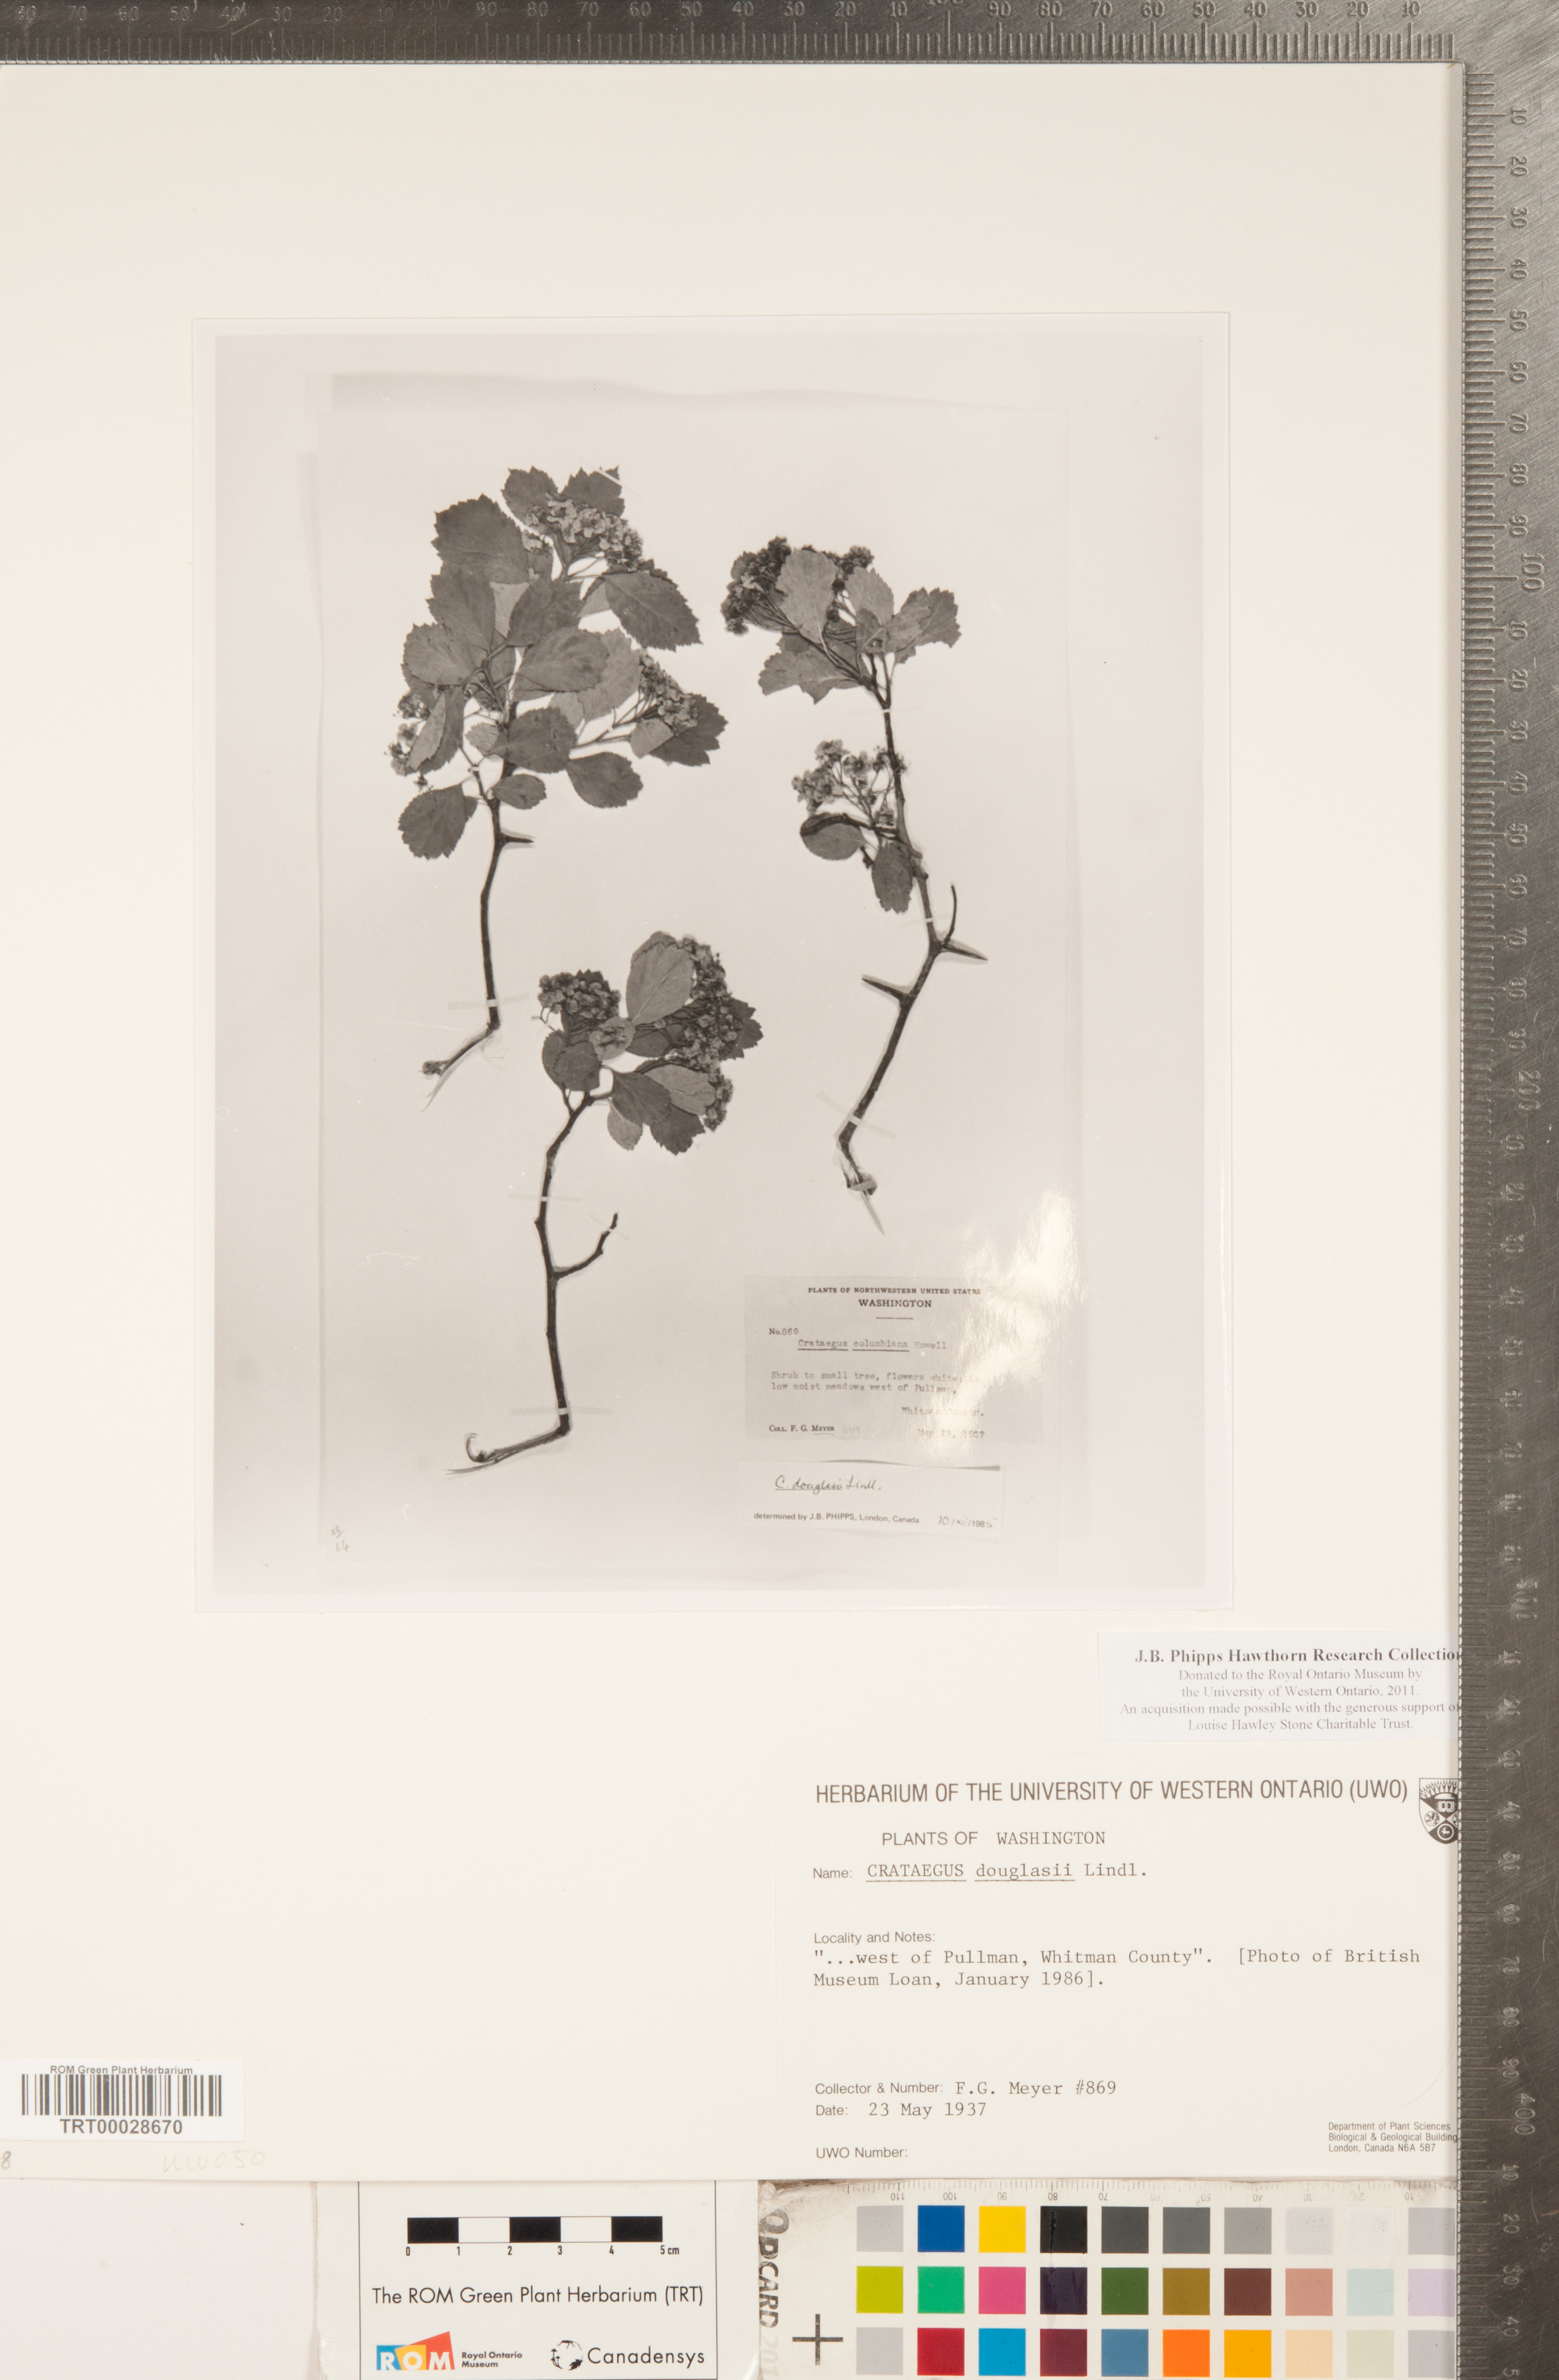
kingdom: Plantae
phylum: Tracheophyta
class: Magnoliopsida
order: Rosales
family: Rosaceae
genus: Crataegus
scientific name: Crataegus douglasii
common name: Black hawthorn
